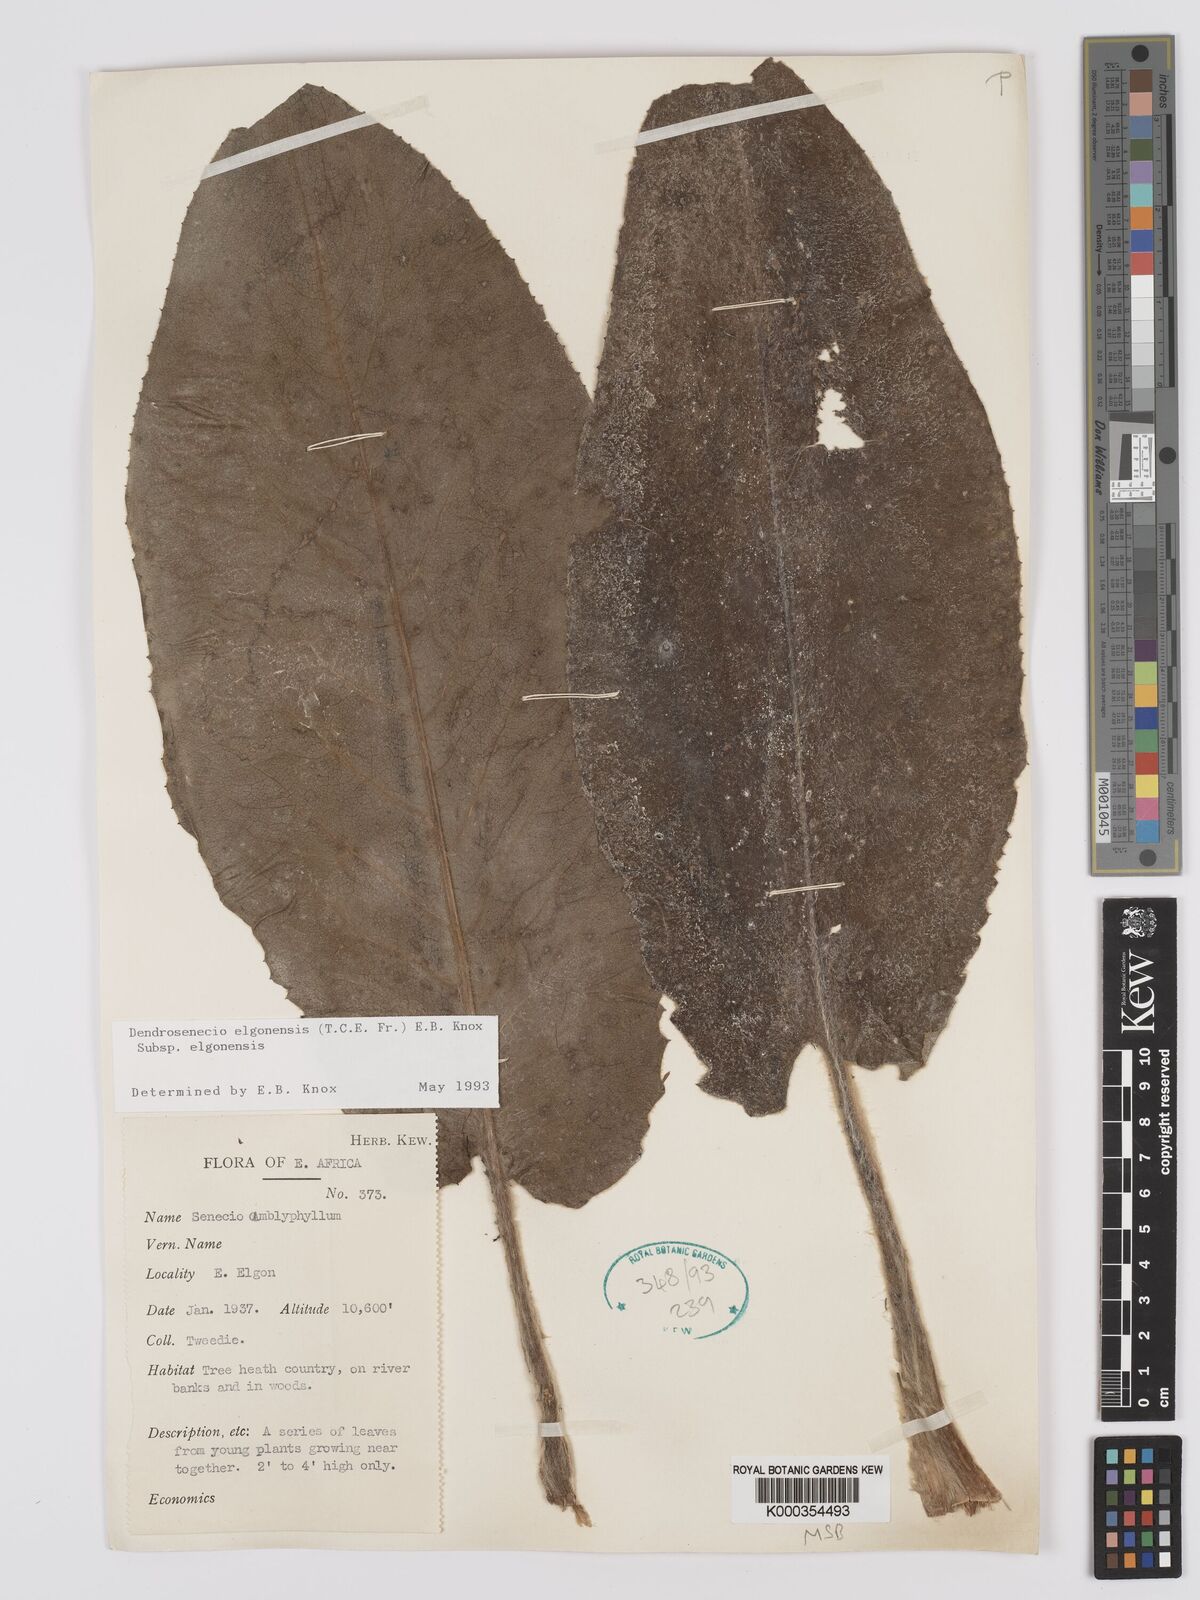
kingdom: Plantae
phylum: Tracheophyta
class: Magnoliopsida
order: Asterales
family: Asteraceae
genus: Dendrosenecio
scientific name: Dendrosenecio elgonensis
